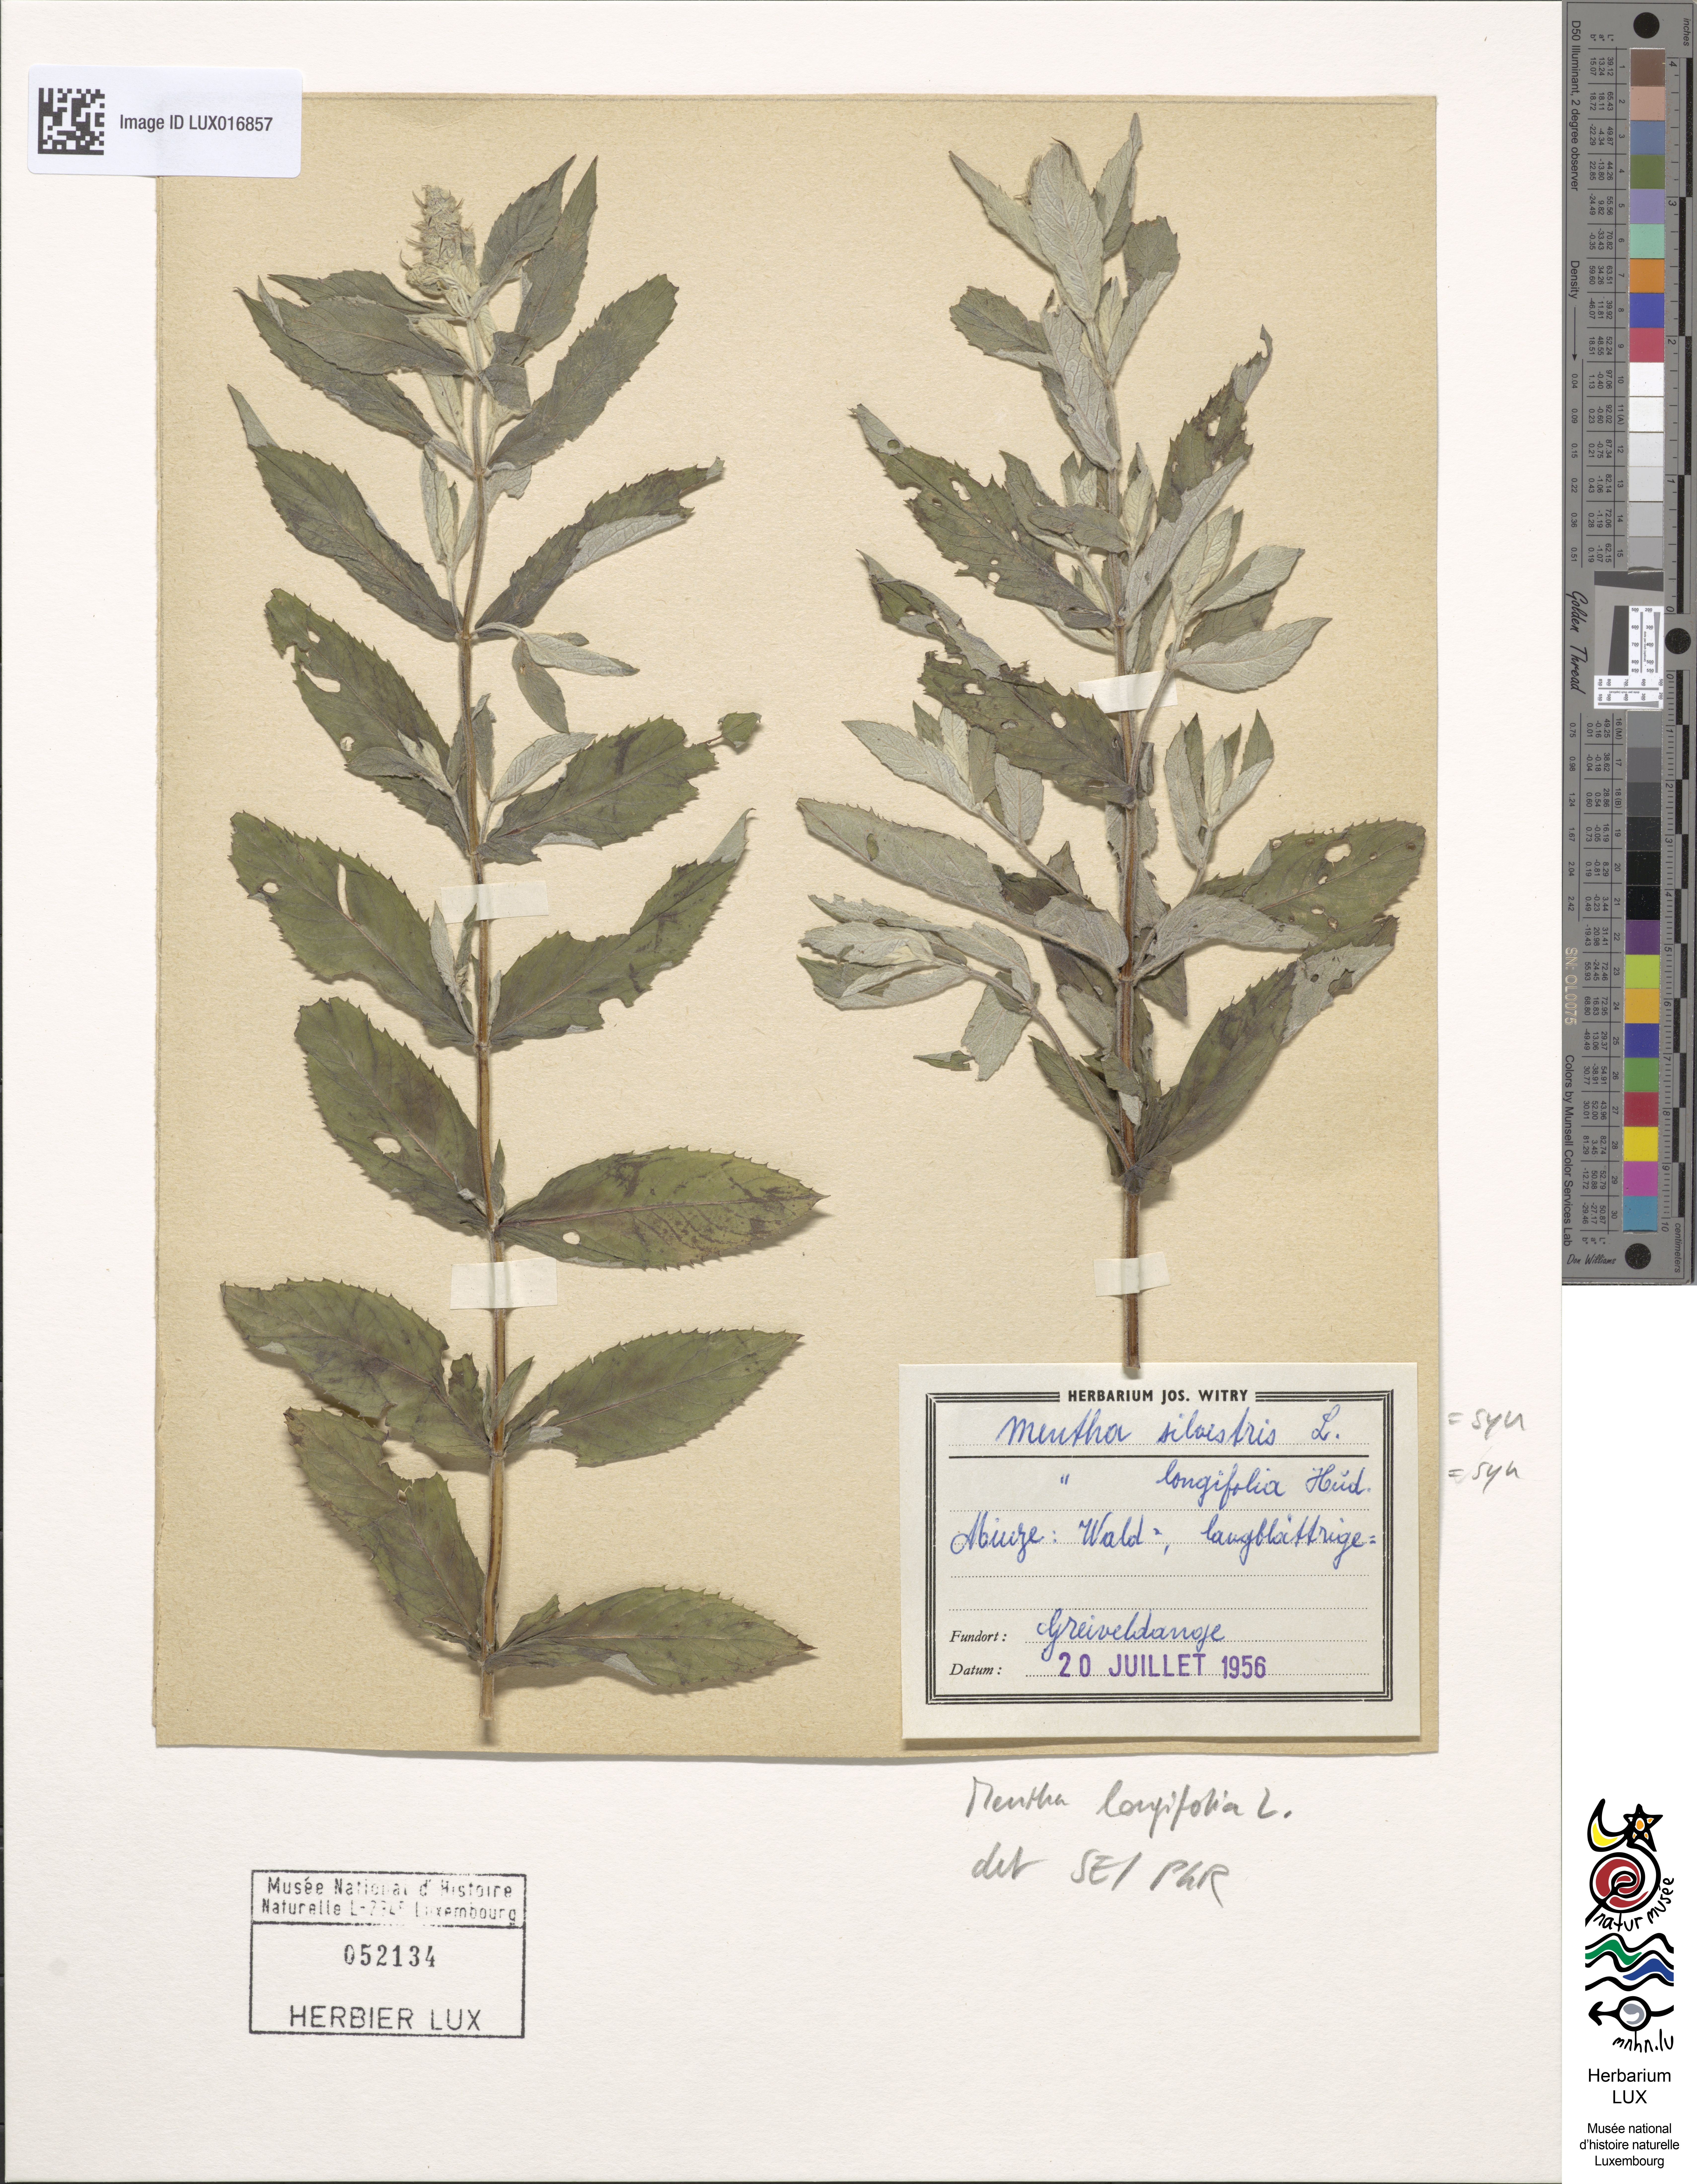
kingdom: Plantae
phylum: Tracheophyta
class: Magnoliopsida
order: Lamiales
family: Lamiaceae
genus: Mentha
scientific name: Mentha longifolia
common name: Horse mint
